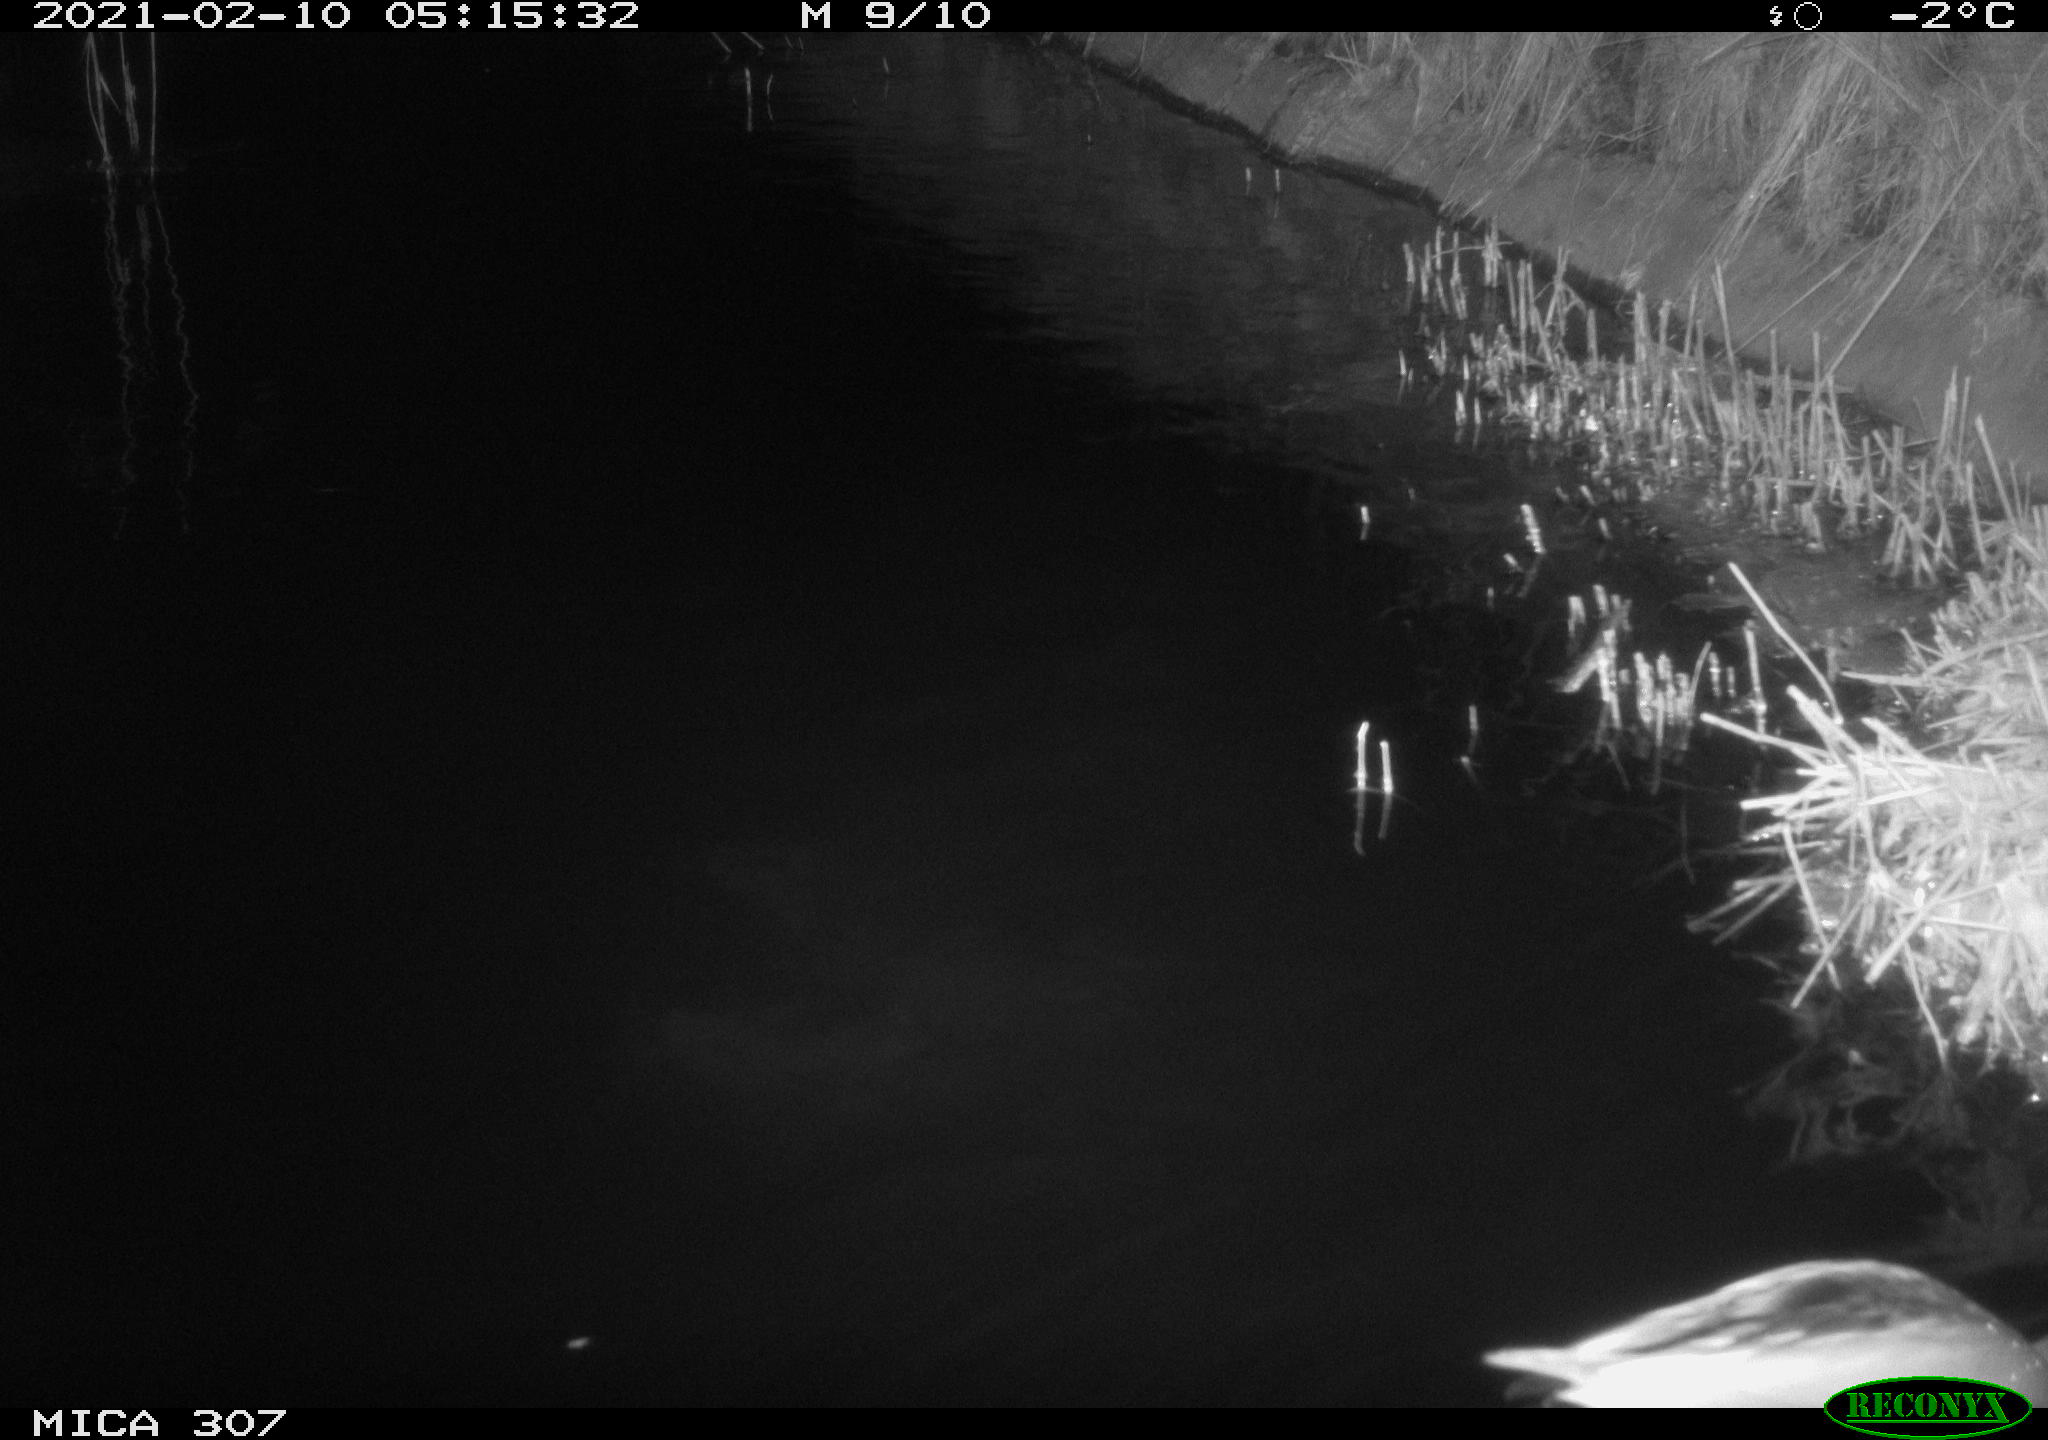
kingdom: Animalia
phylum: Chordata
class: Aves
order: Anseriformes
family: Anatidae
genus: Anas
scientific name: Anas platyrhynchos
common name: Mallard
